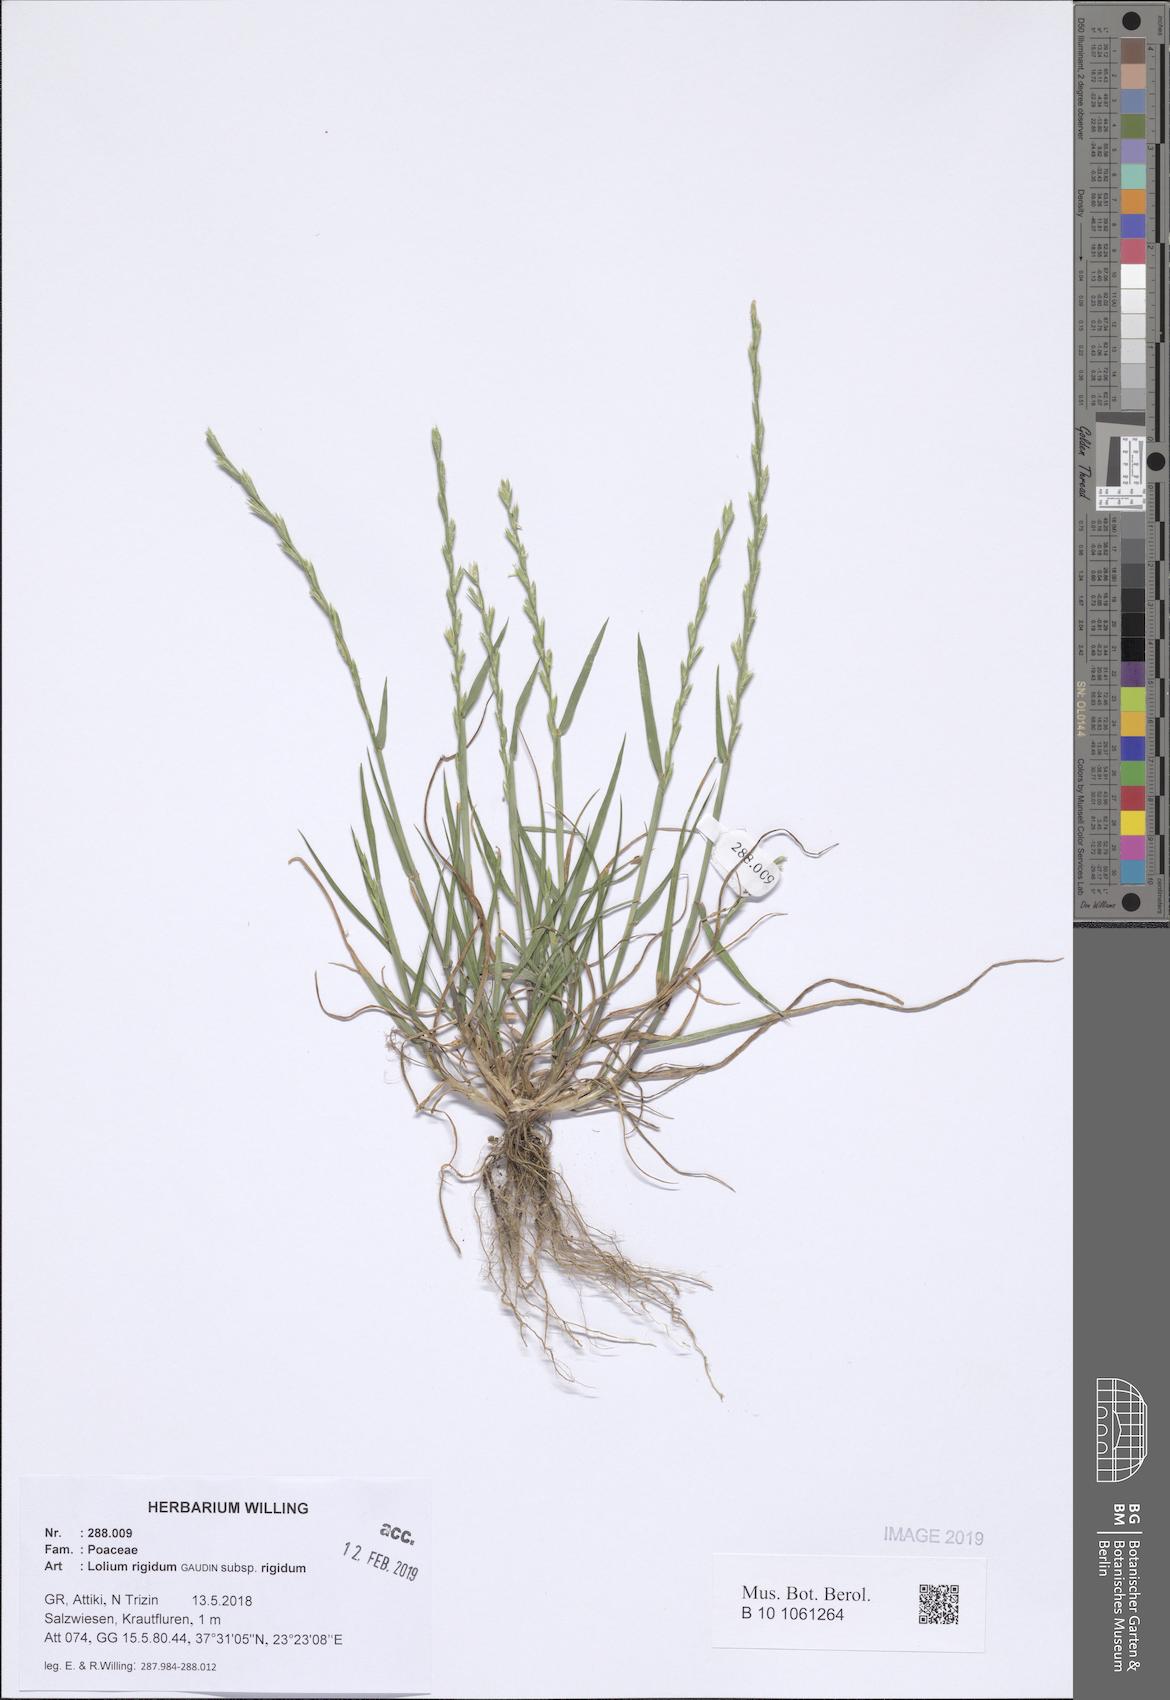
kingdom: Plantae
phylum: Tracheophyta
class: Liliopsida
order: Poales
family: Poaceae
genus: Lolium
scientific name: Lolium rigidum
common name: Wimmera ryegrass
